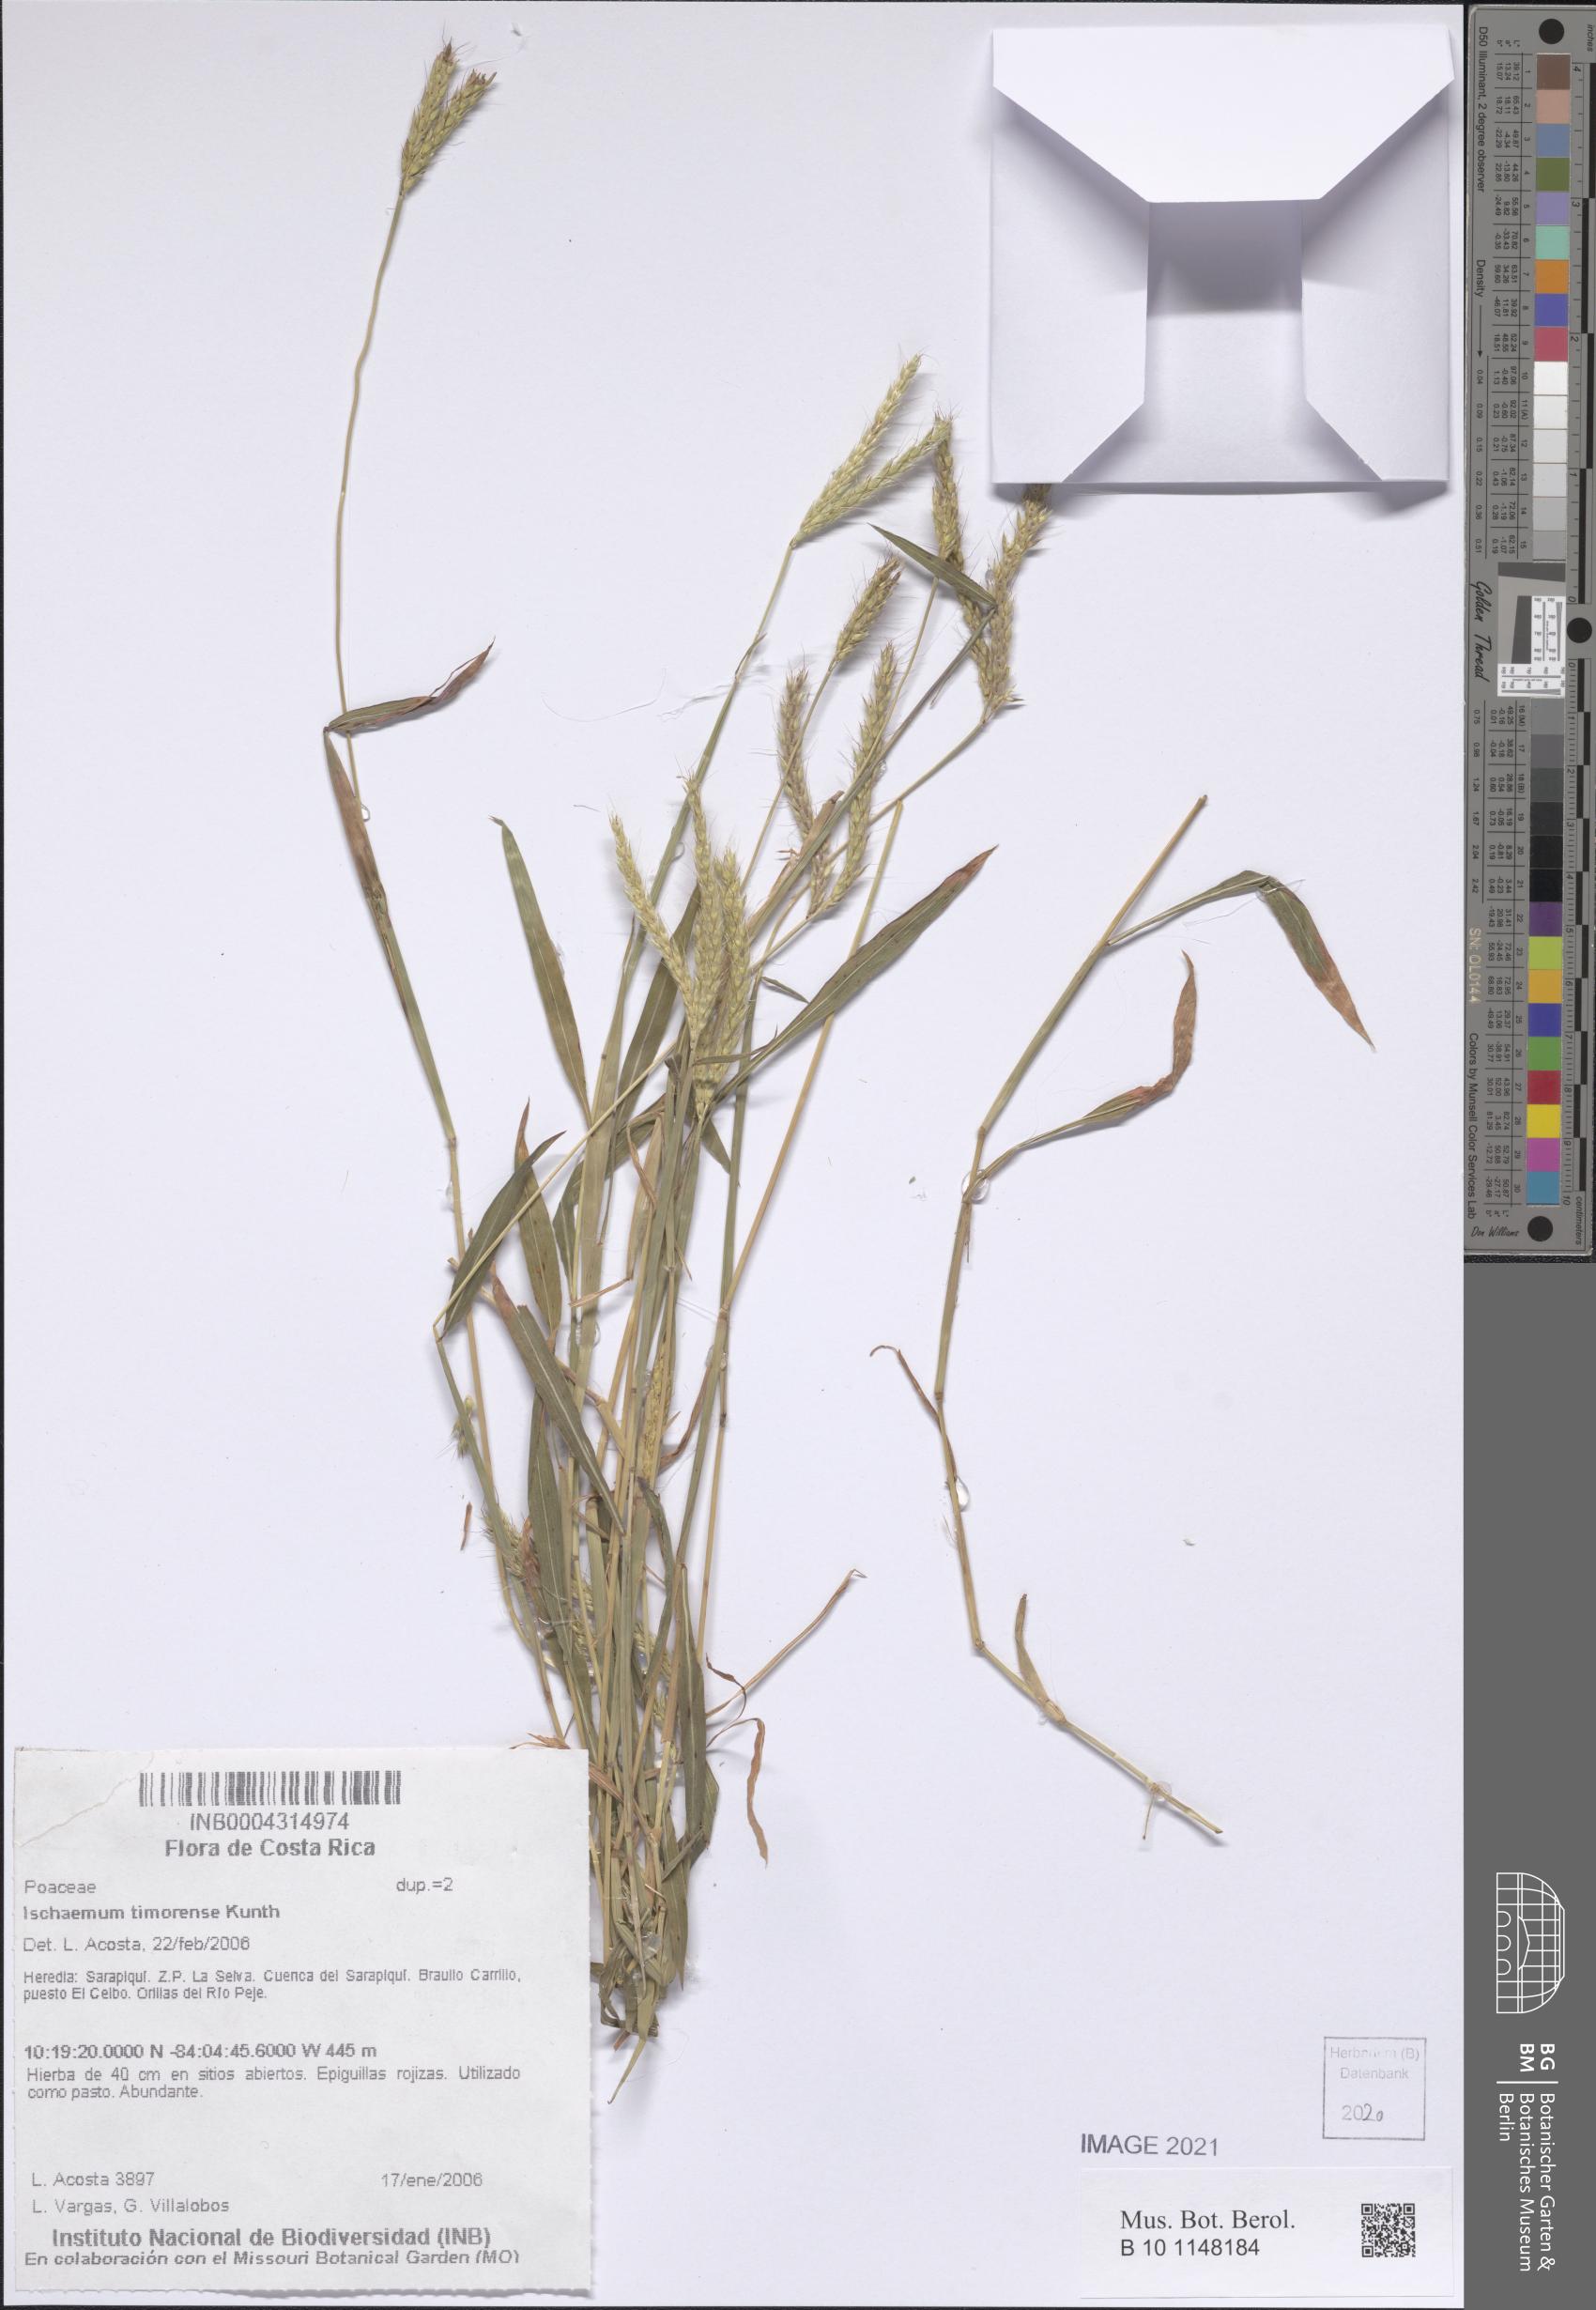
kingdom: Plantae
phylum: Tracheophyta
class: Liliopsida
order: Poales
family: Poaceae
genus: Ischaemum
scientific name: Ischaemum timorense
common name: Stalkleaf murainagrass
